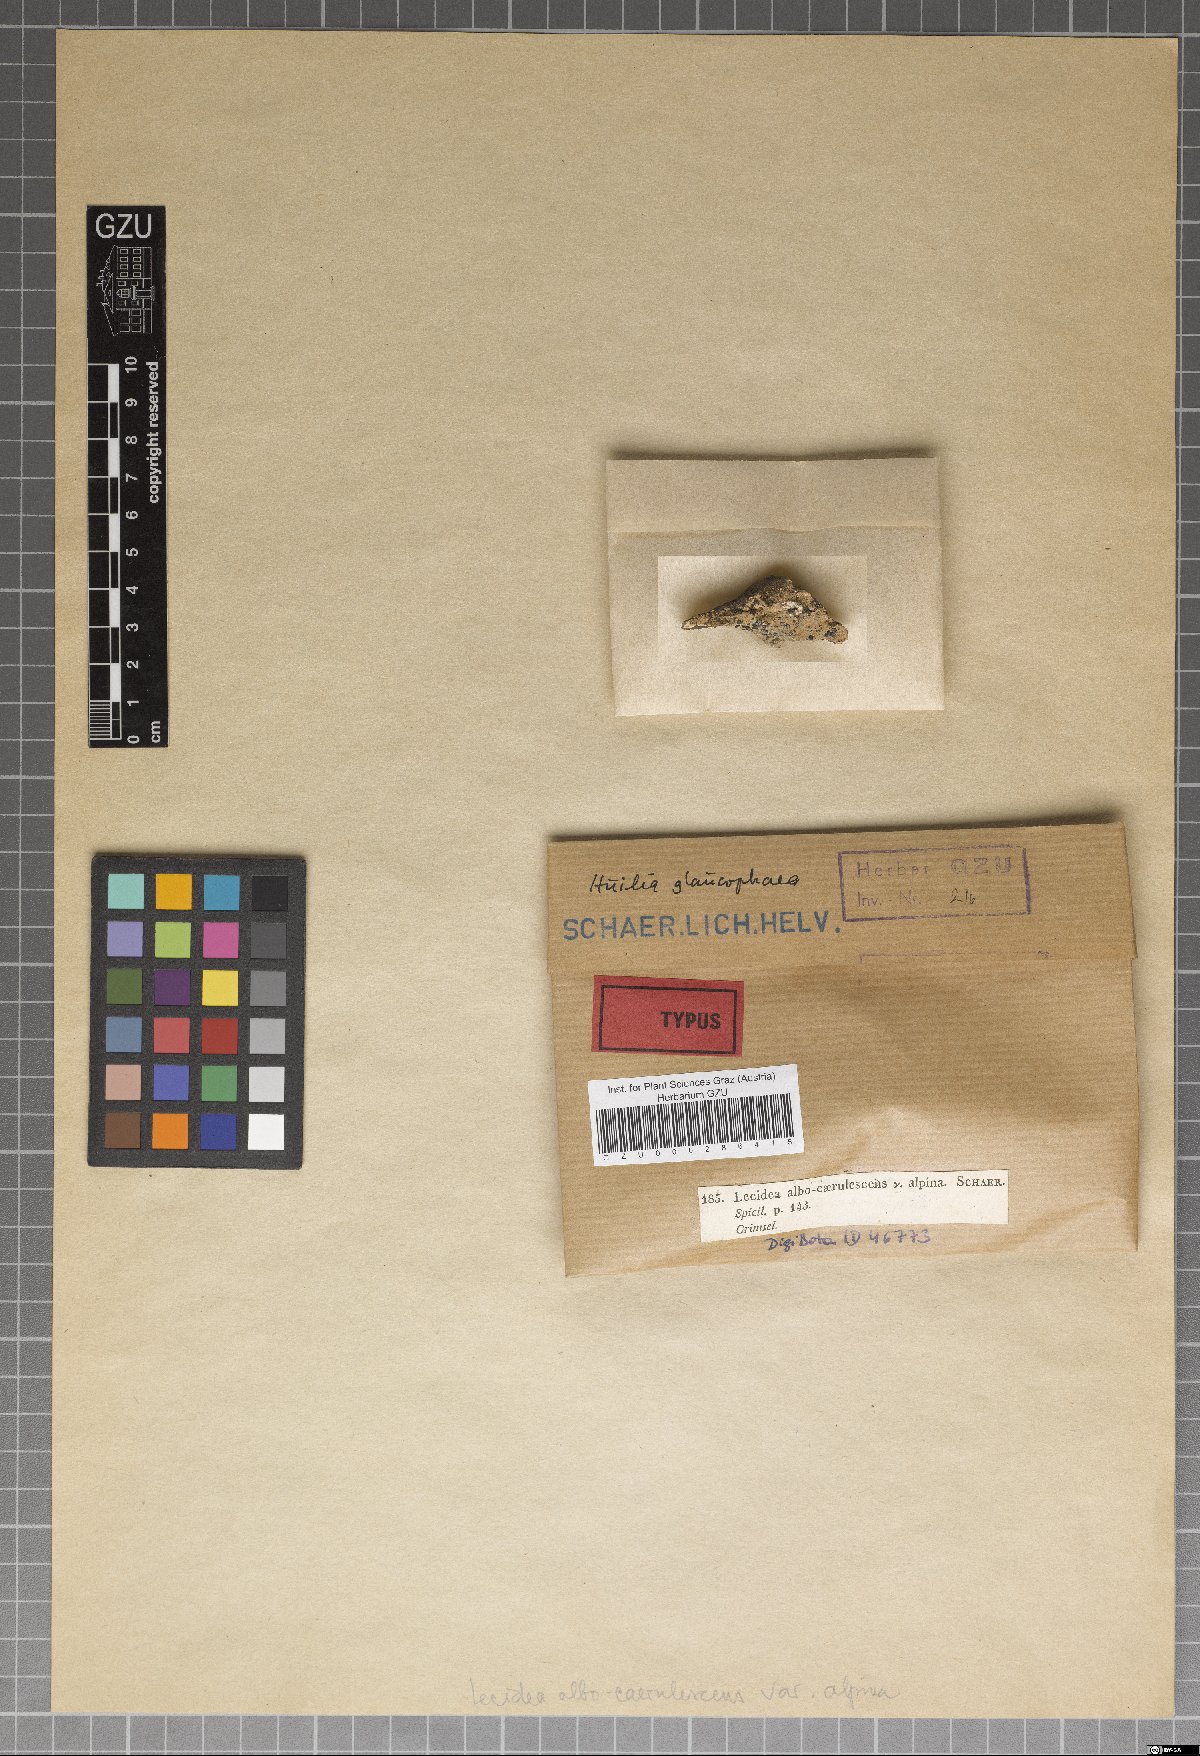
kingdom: Fungi
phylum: Ascomycota
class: Lecanoromycetes
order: Lecideales
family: Lecideaceae
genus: Porpidia
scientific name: Porpidia rugosa
